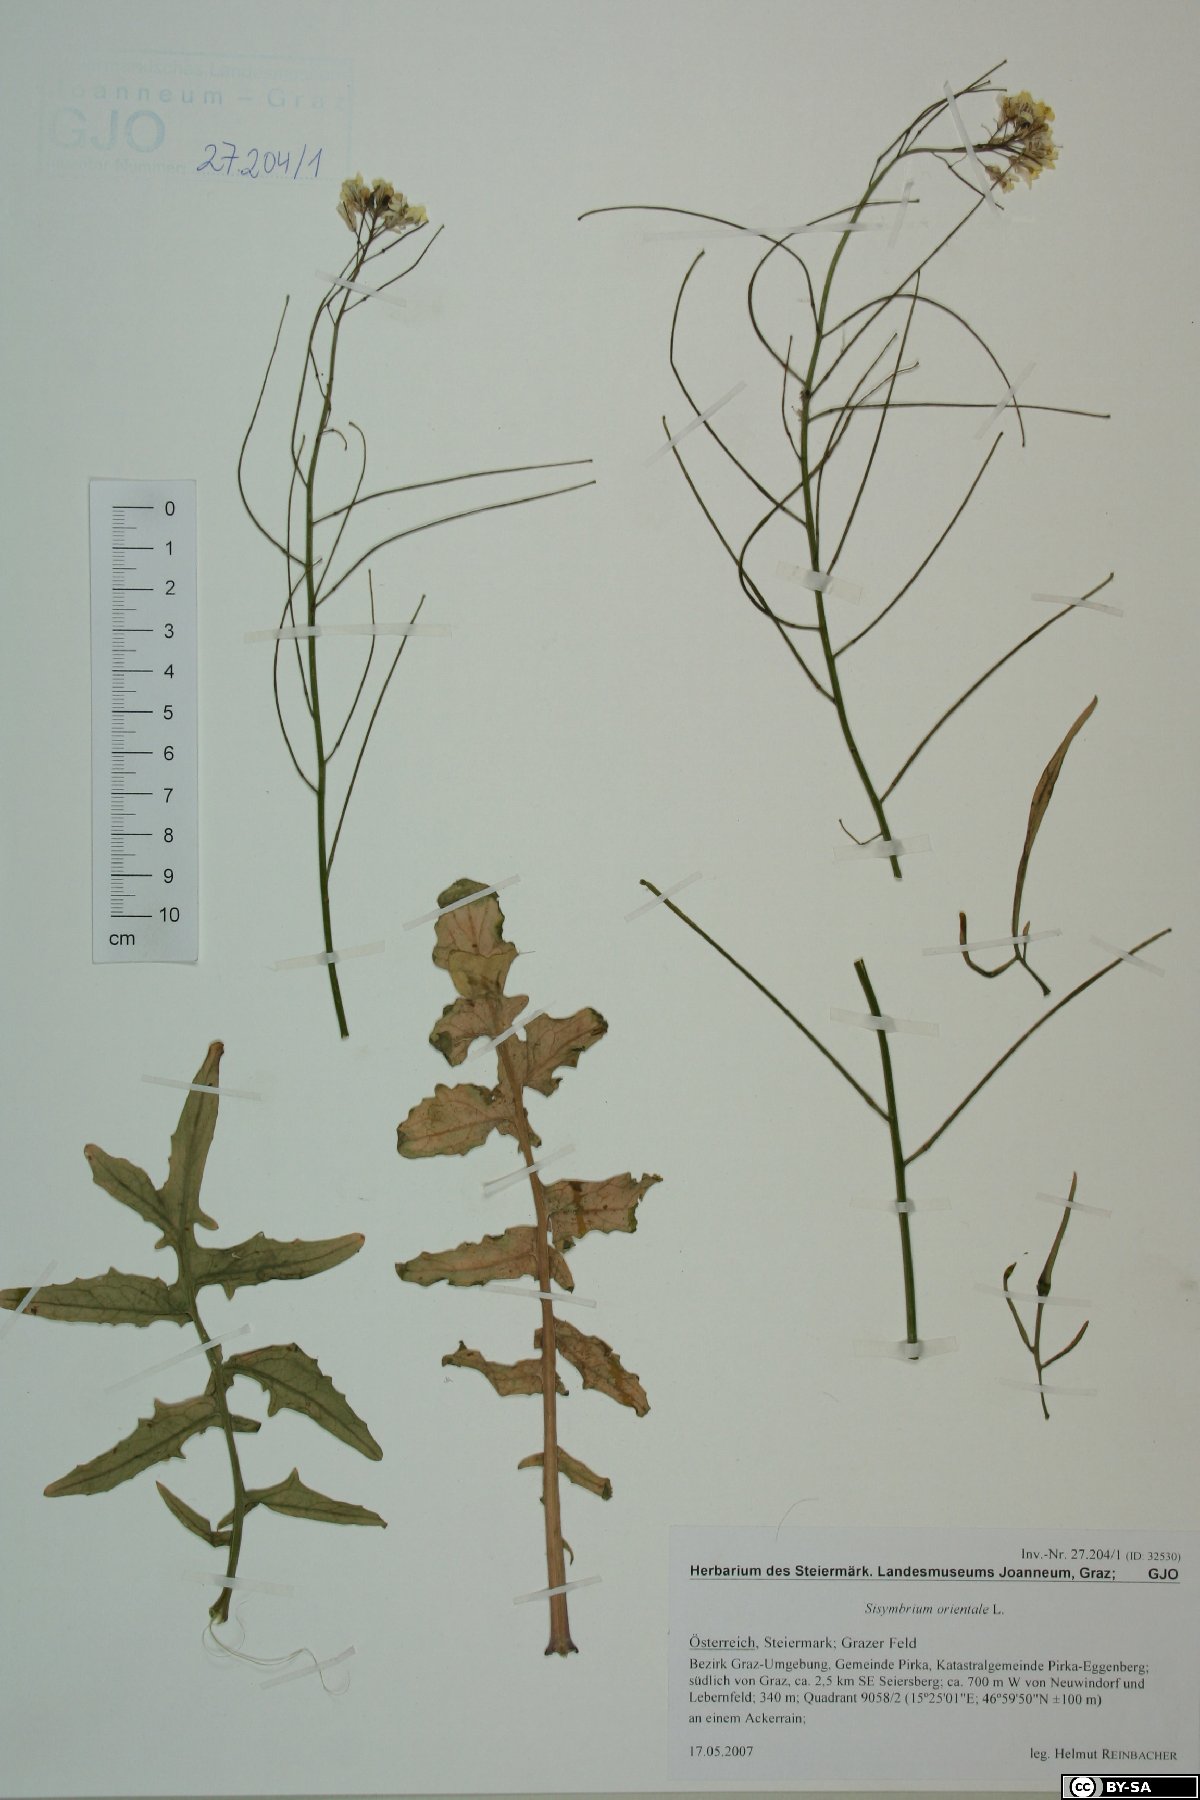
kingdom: Plantae
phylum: Tracheophyta
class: Magnoliopsida
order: Brassicales
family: Brassicaceae
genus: Sisymbrium
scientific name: Sisymbrium orientale
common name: Eastern rocket
